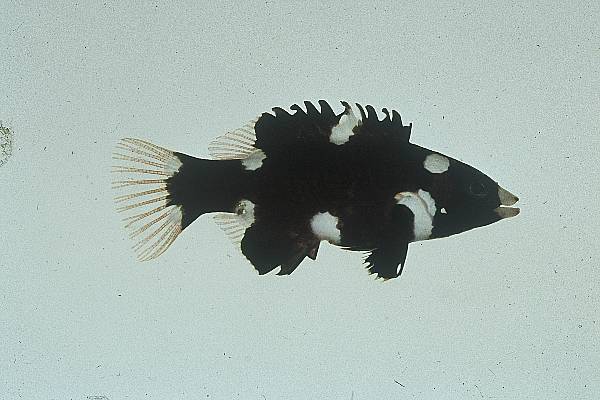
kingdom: Animalia
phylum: Chordata
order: Perciformes
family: Labridae
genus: Bodianus
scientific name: Bodianus axillaris
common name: Axilspot hogfish
